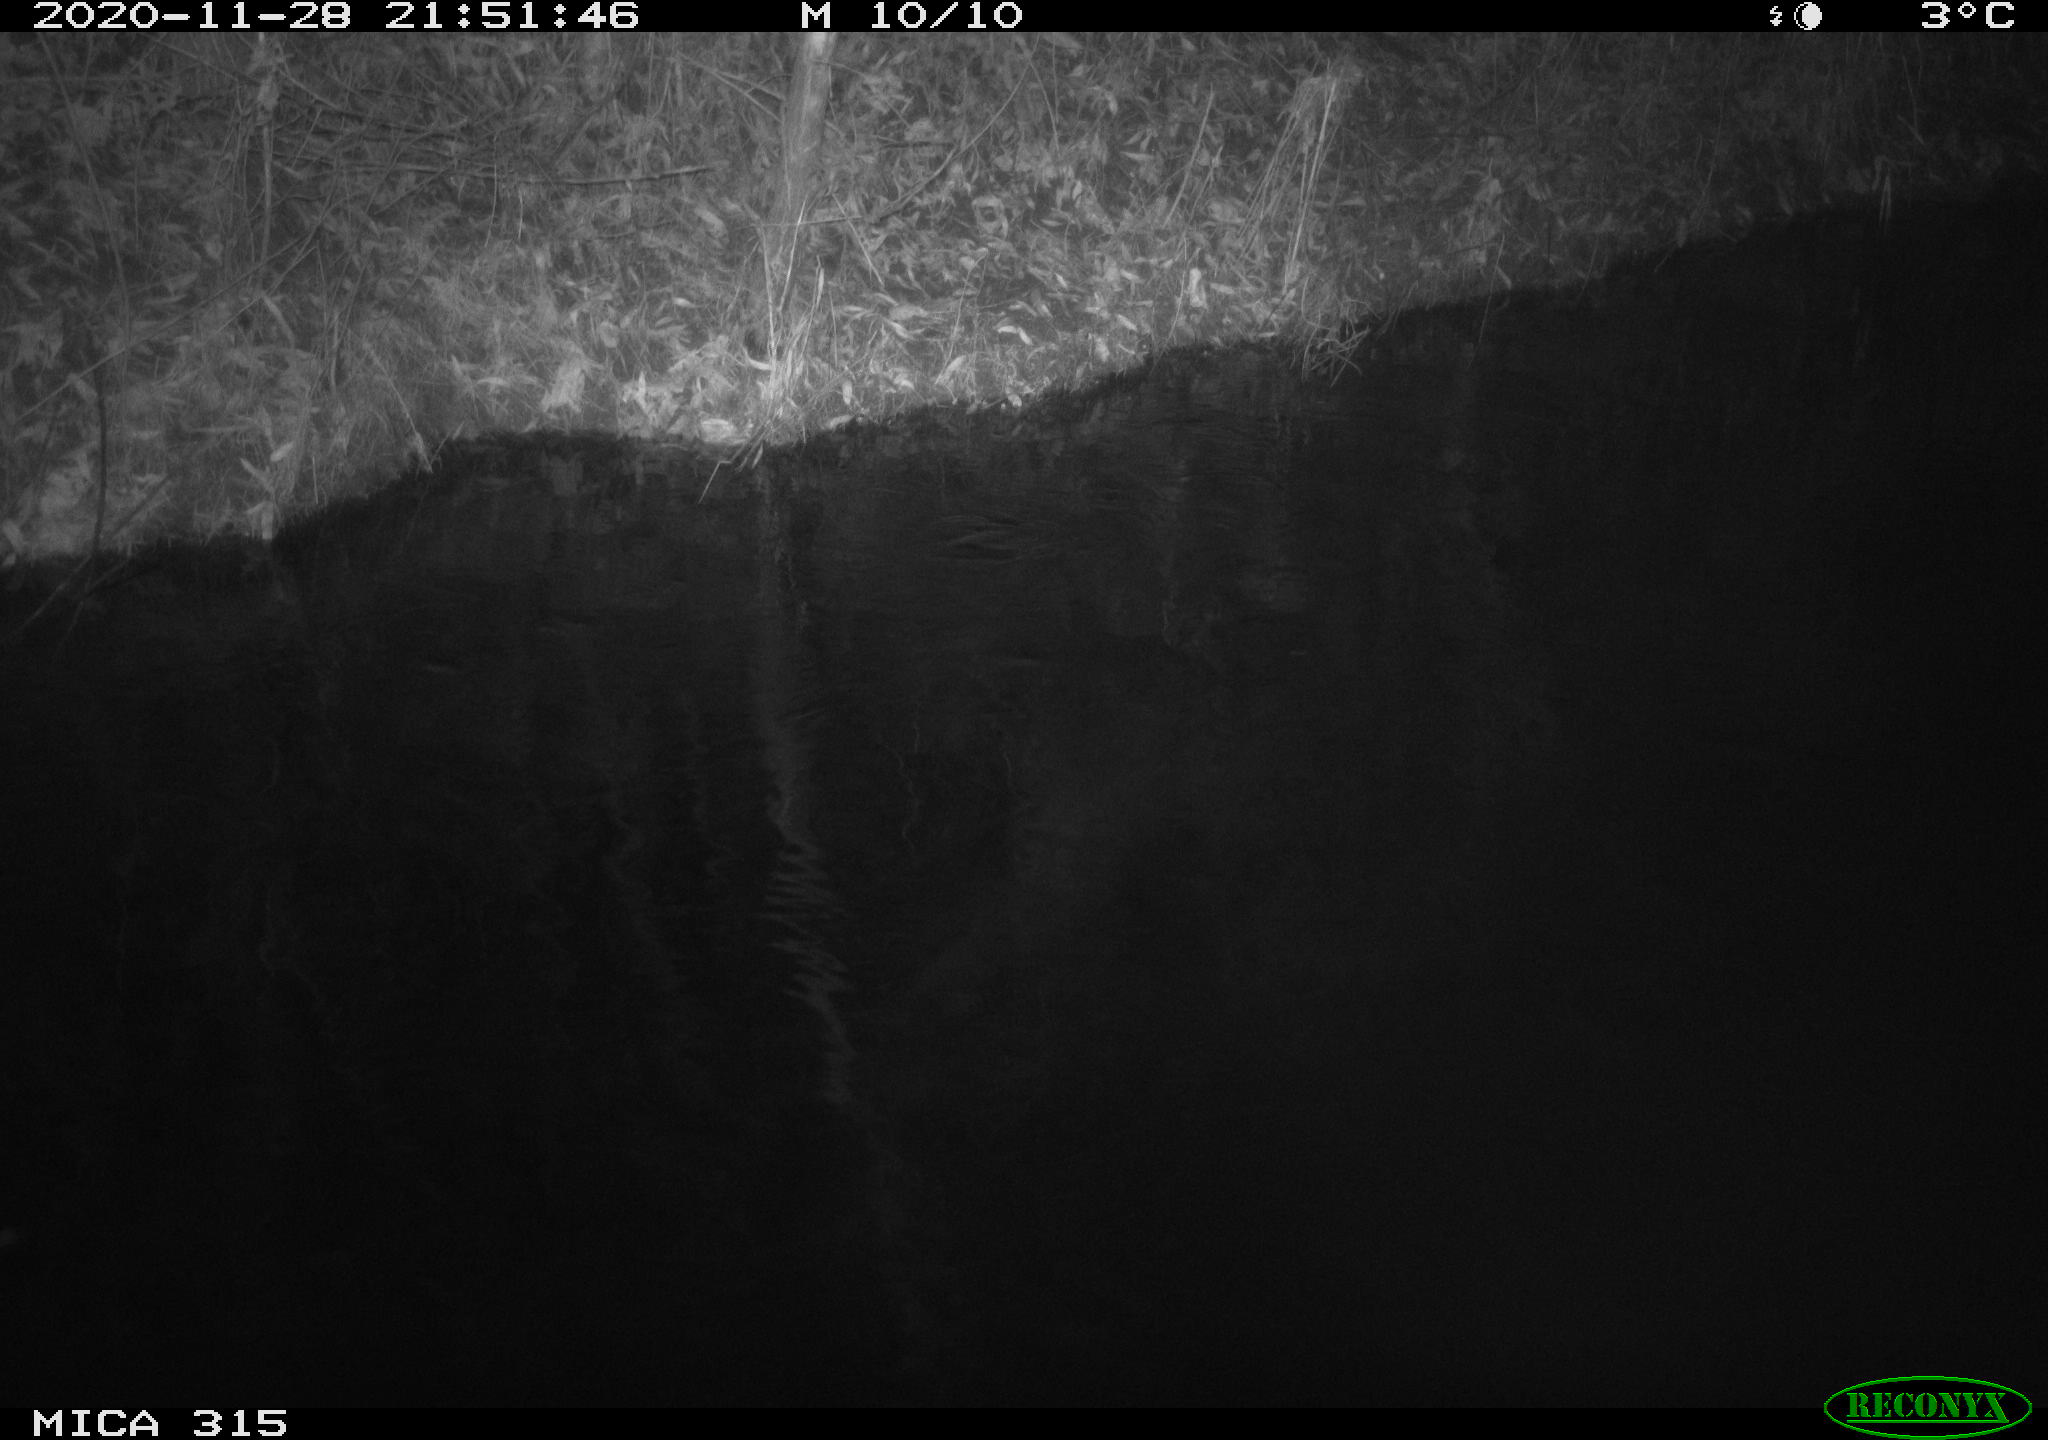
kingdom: Animalia
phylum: Chordata
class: Aves
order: Anseriformes
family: Anatidae
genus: Anas
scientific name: Anas platyrhynchos
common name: Mallard
